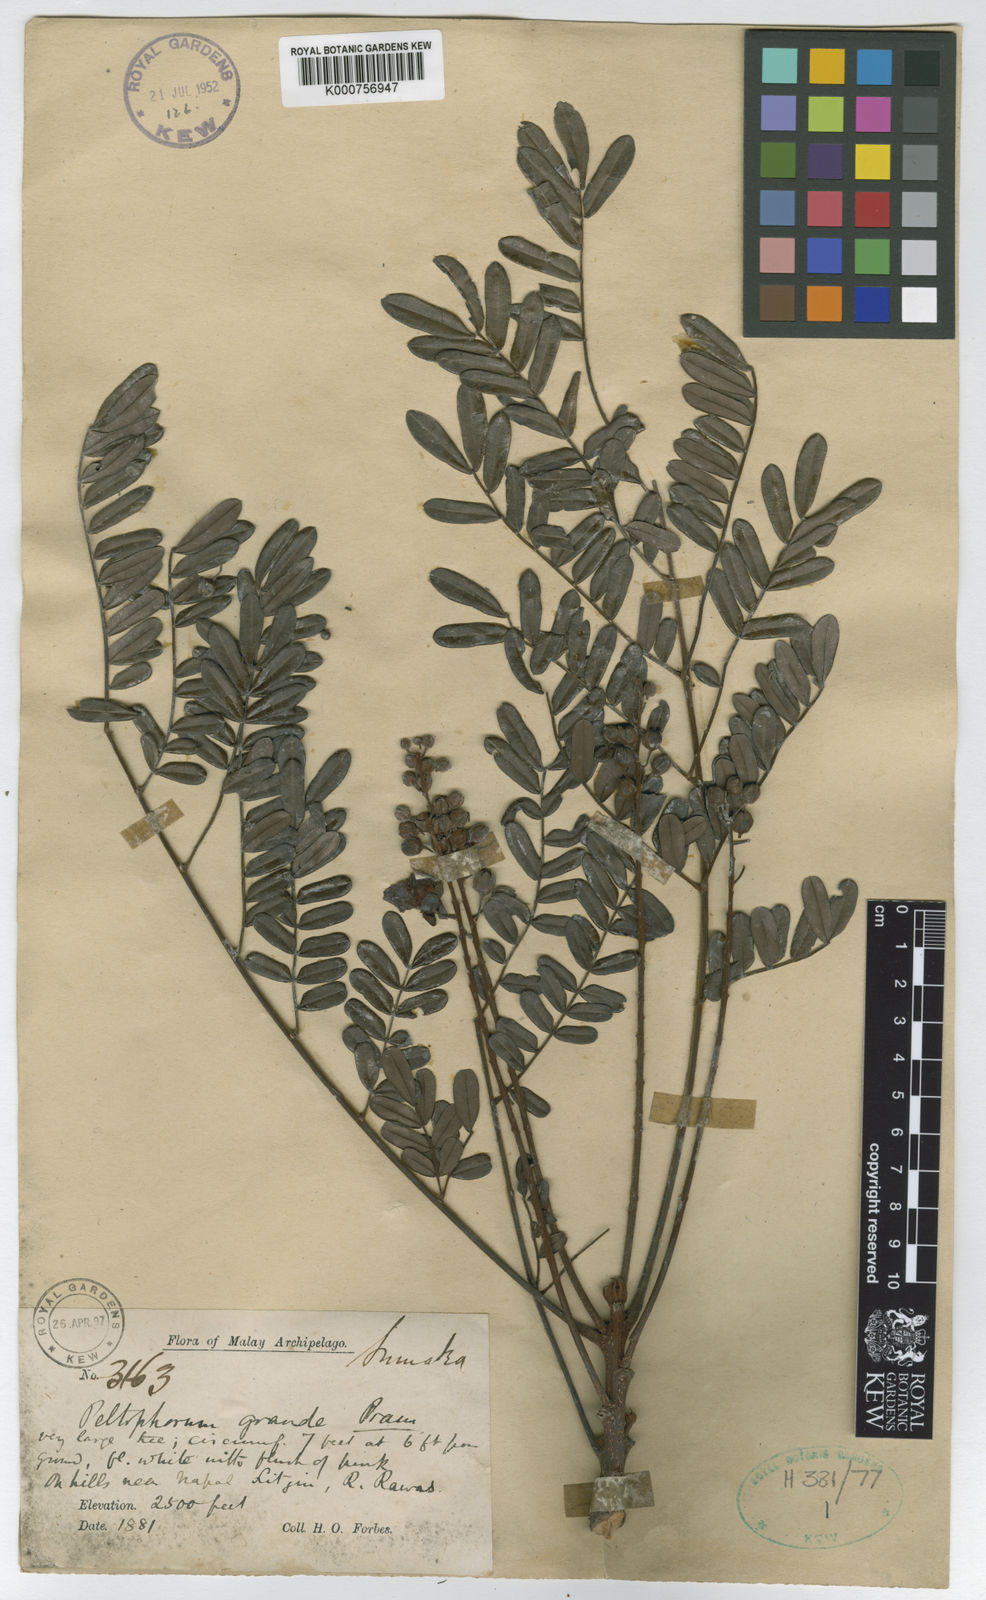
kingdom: Plantae
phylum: Tracheophyta
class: Magnoliopsida
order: Fabales
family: Fabaceae
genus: Peltophorum
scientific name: Peltophorum grande
